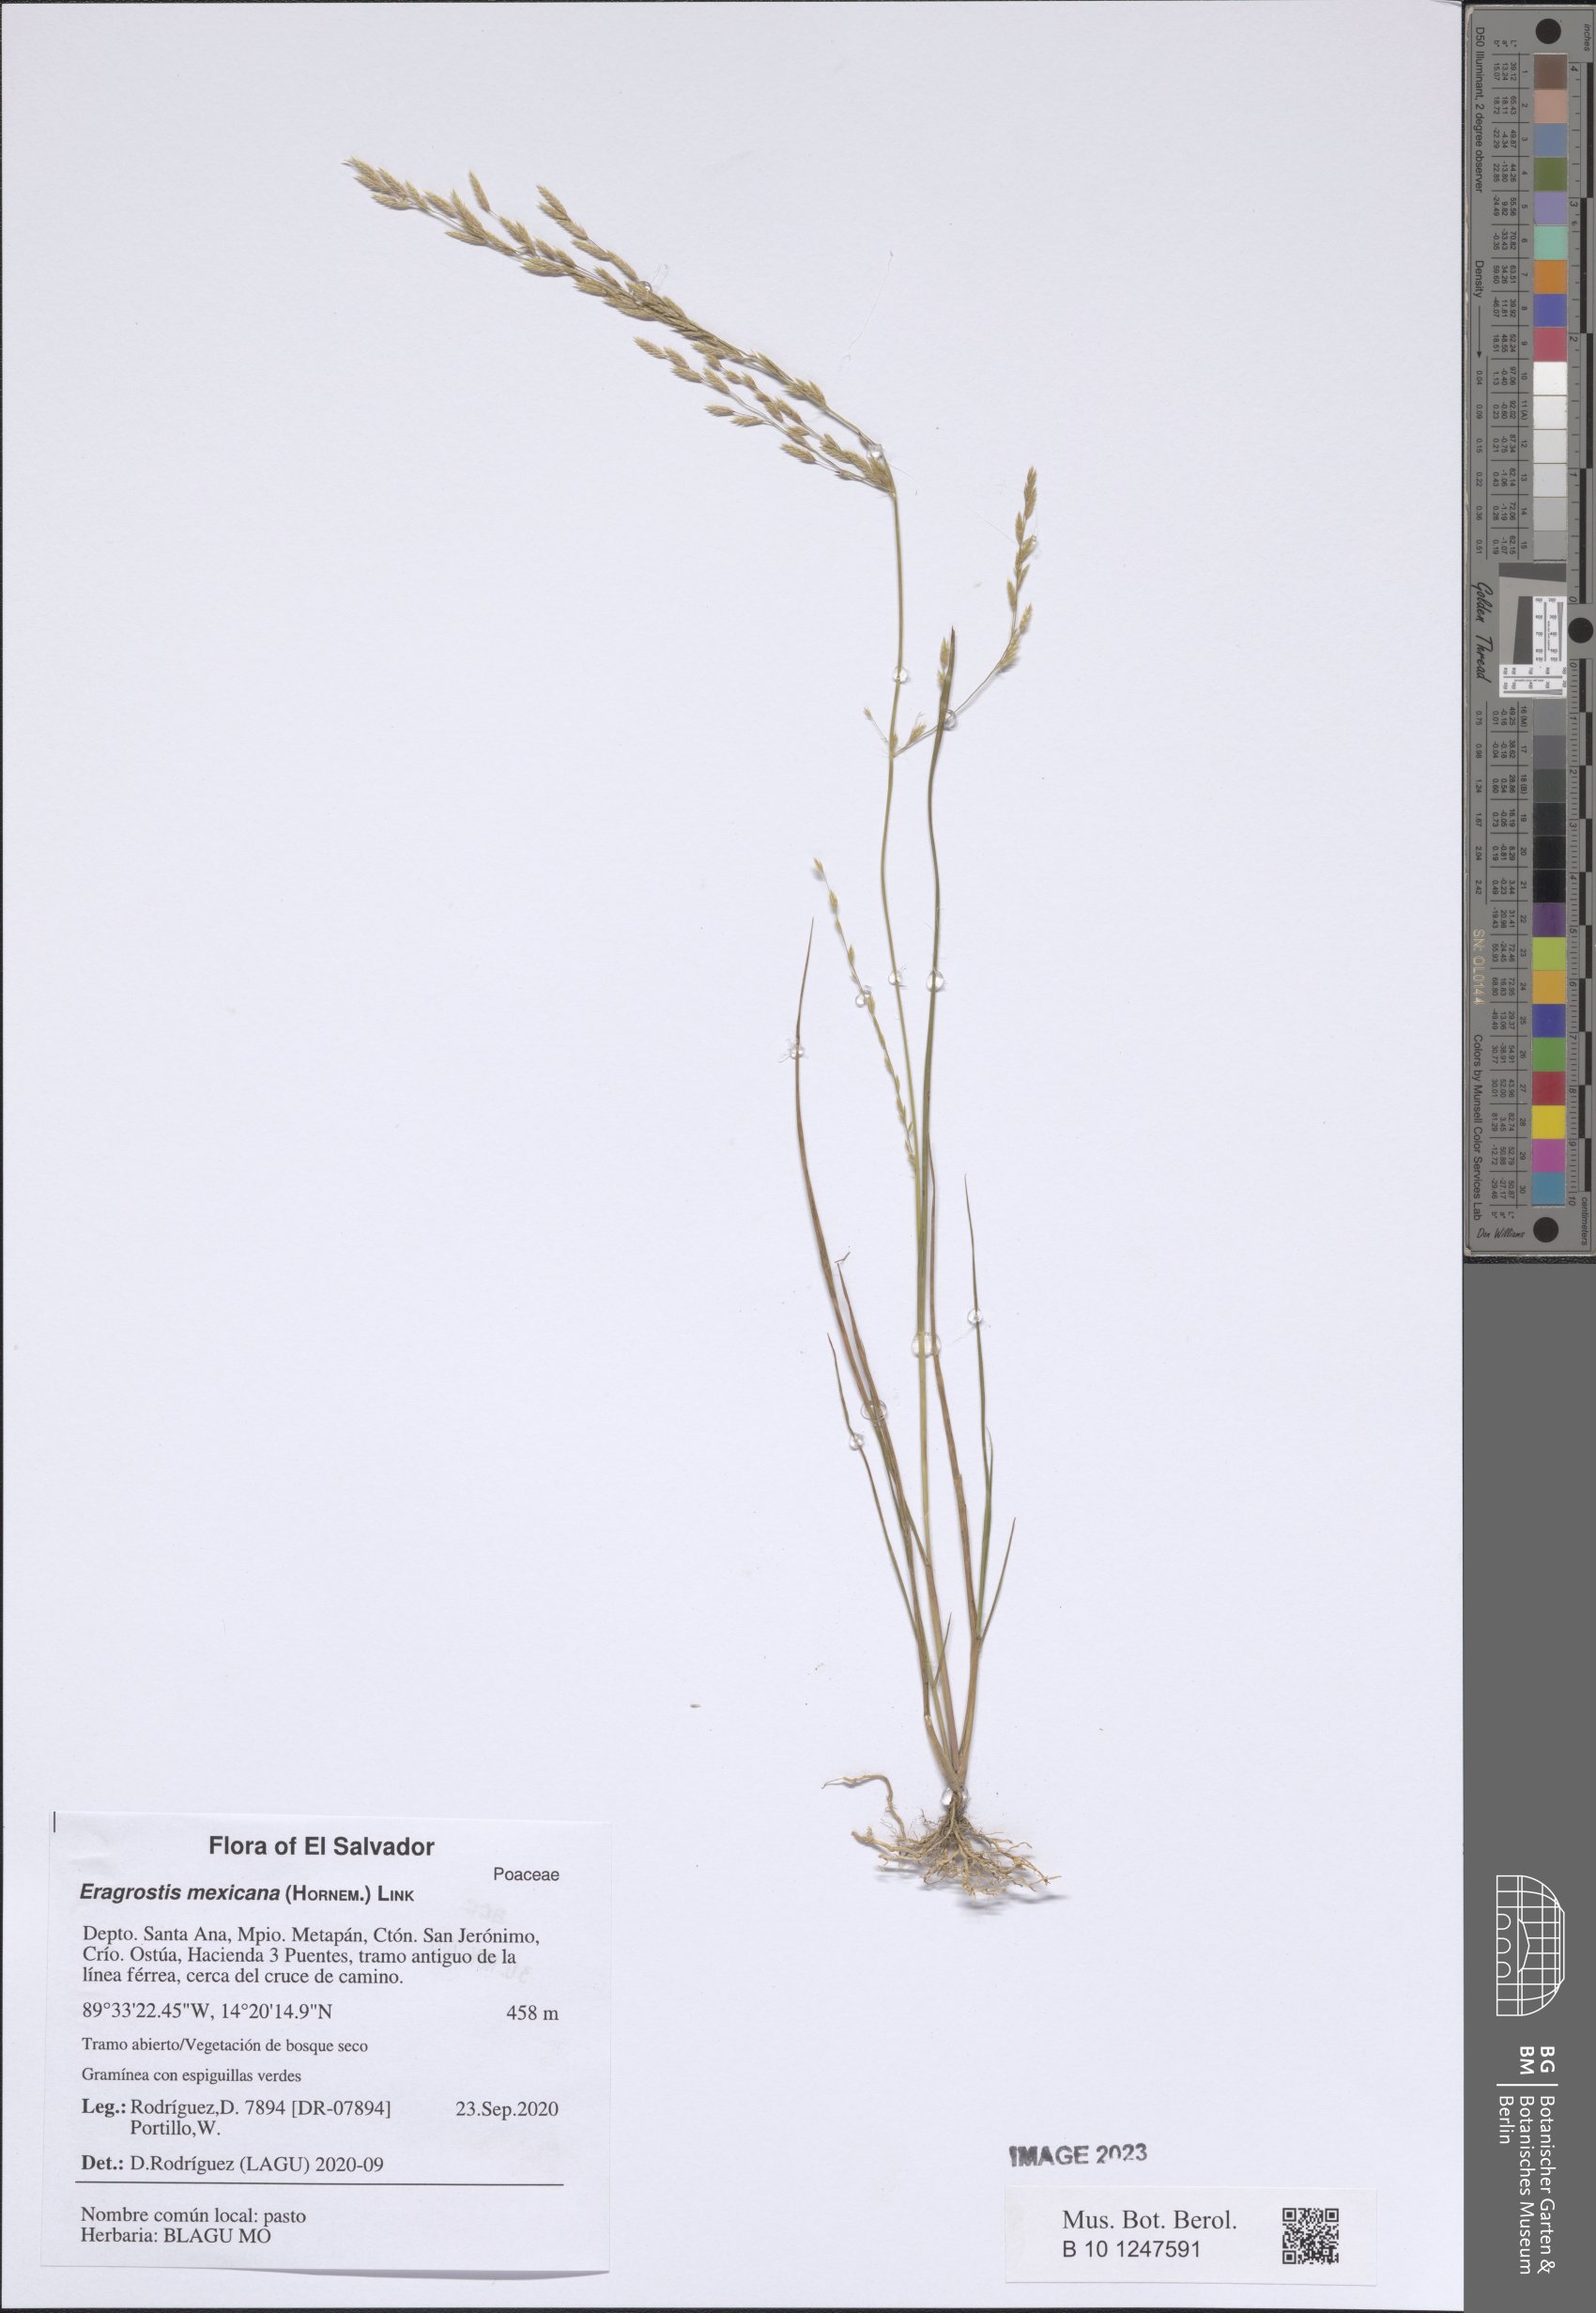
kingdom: Plantae
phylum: Tracheophyta
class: Liliopsida
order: Poales
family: Poaceae
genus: Eragrostis
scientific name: Eragrostis mexicana
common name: Mexican love grass
